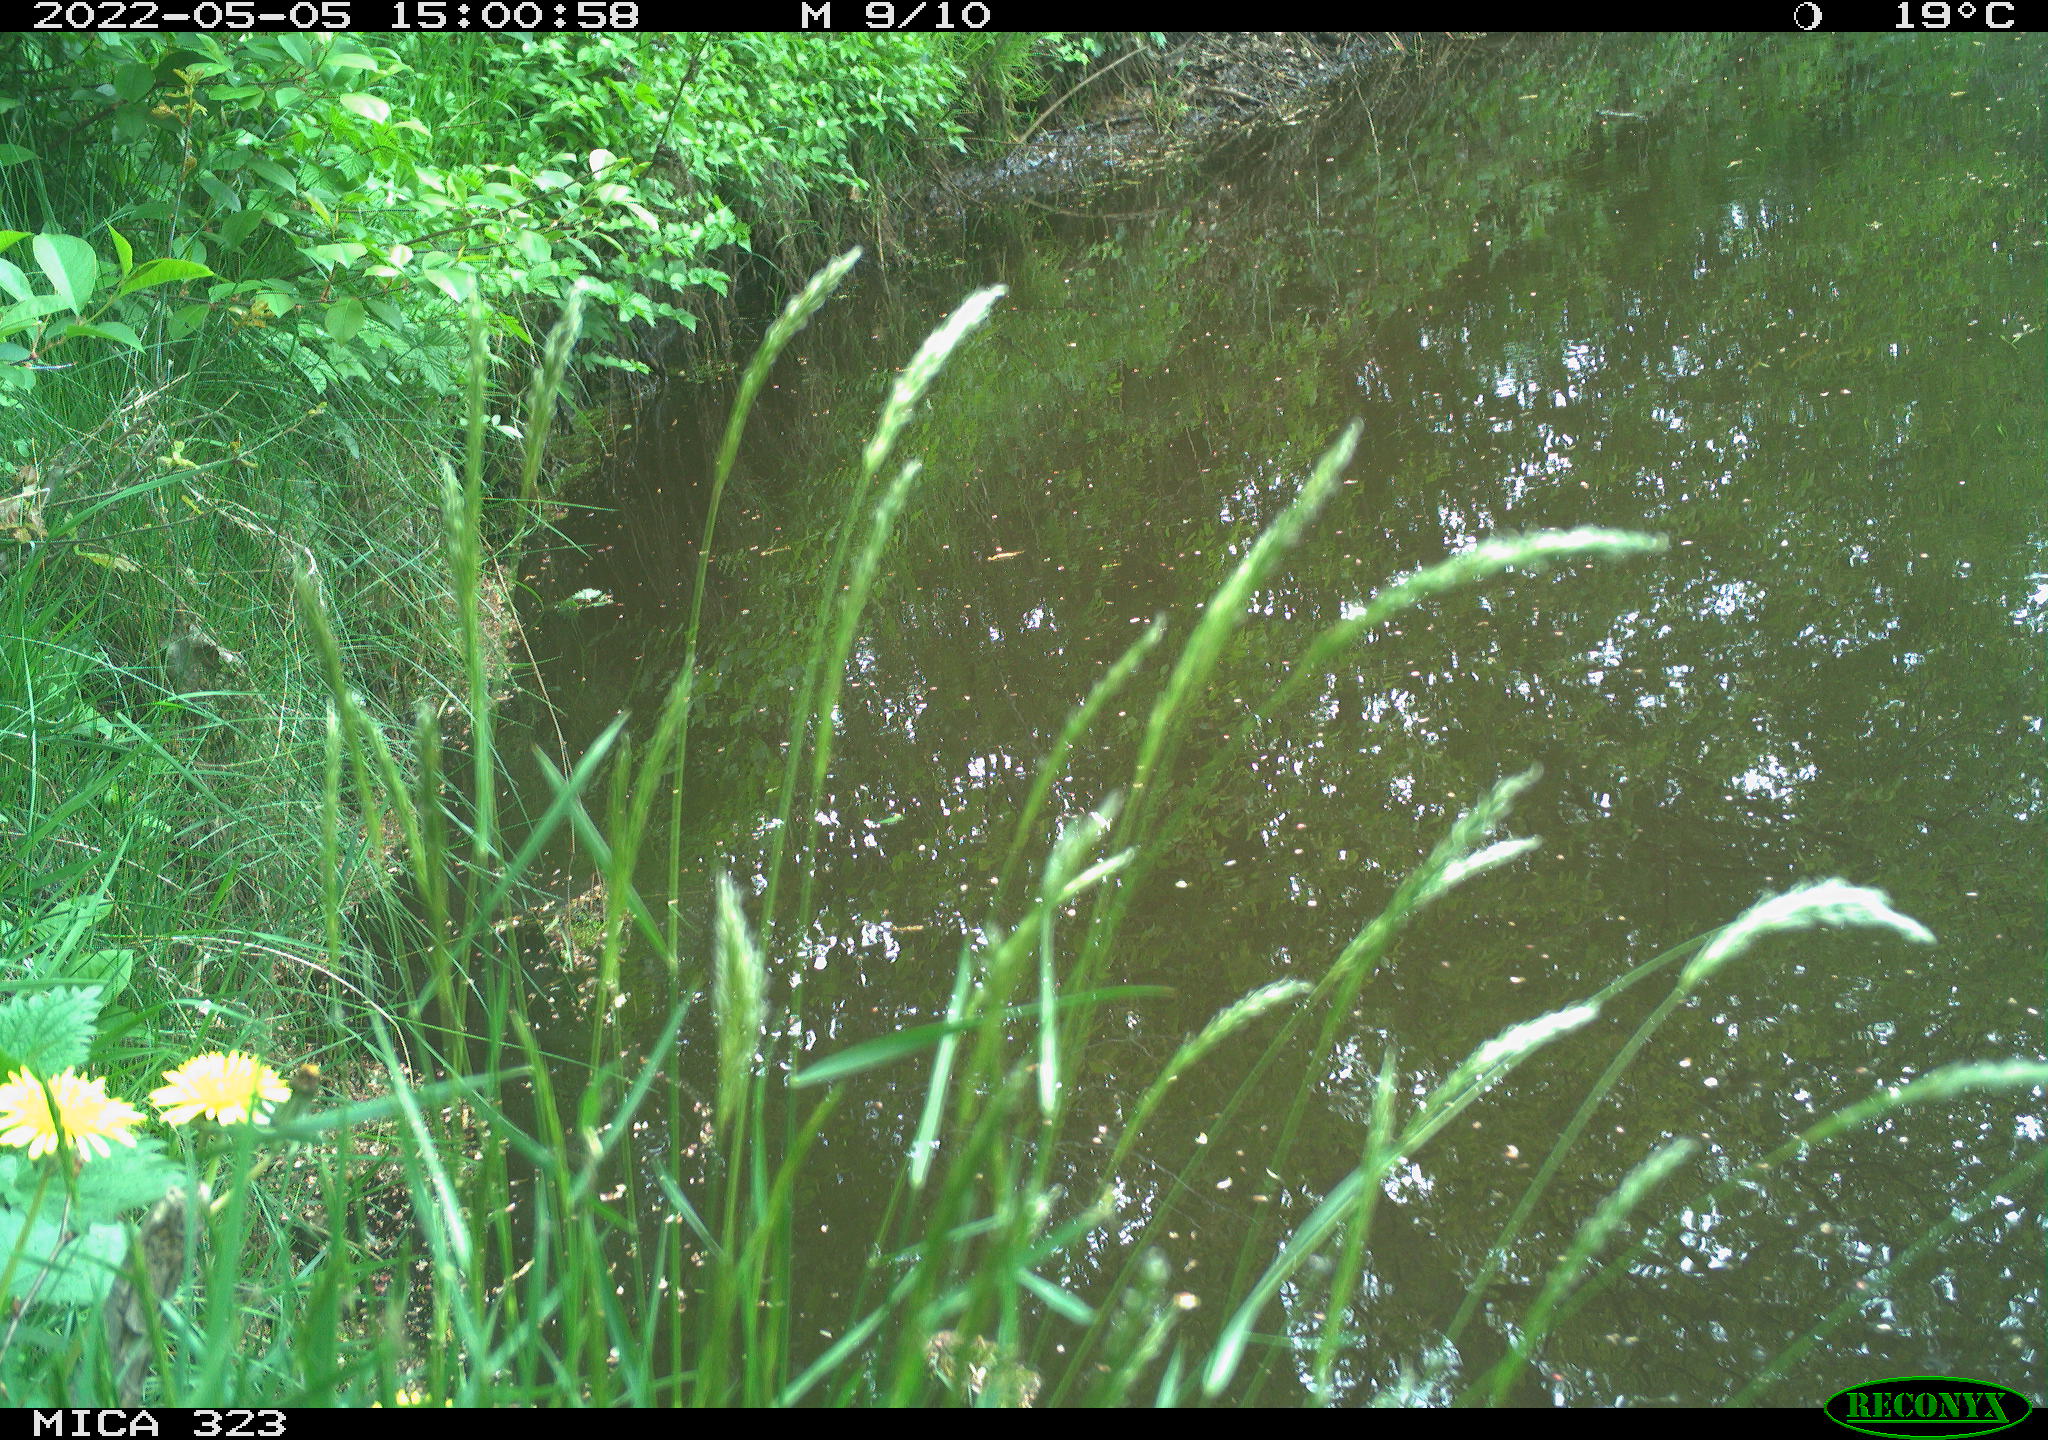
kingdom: Animalia
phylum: Chordata
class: Aves
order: Passeriformes
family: Muscicapidae
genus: Erithacus
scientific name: Erithacus rubecula
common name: European robin
